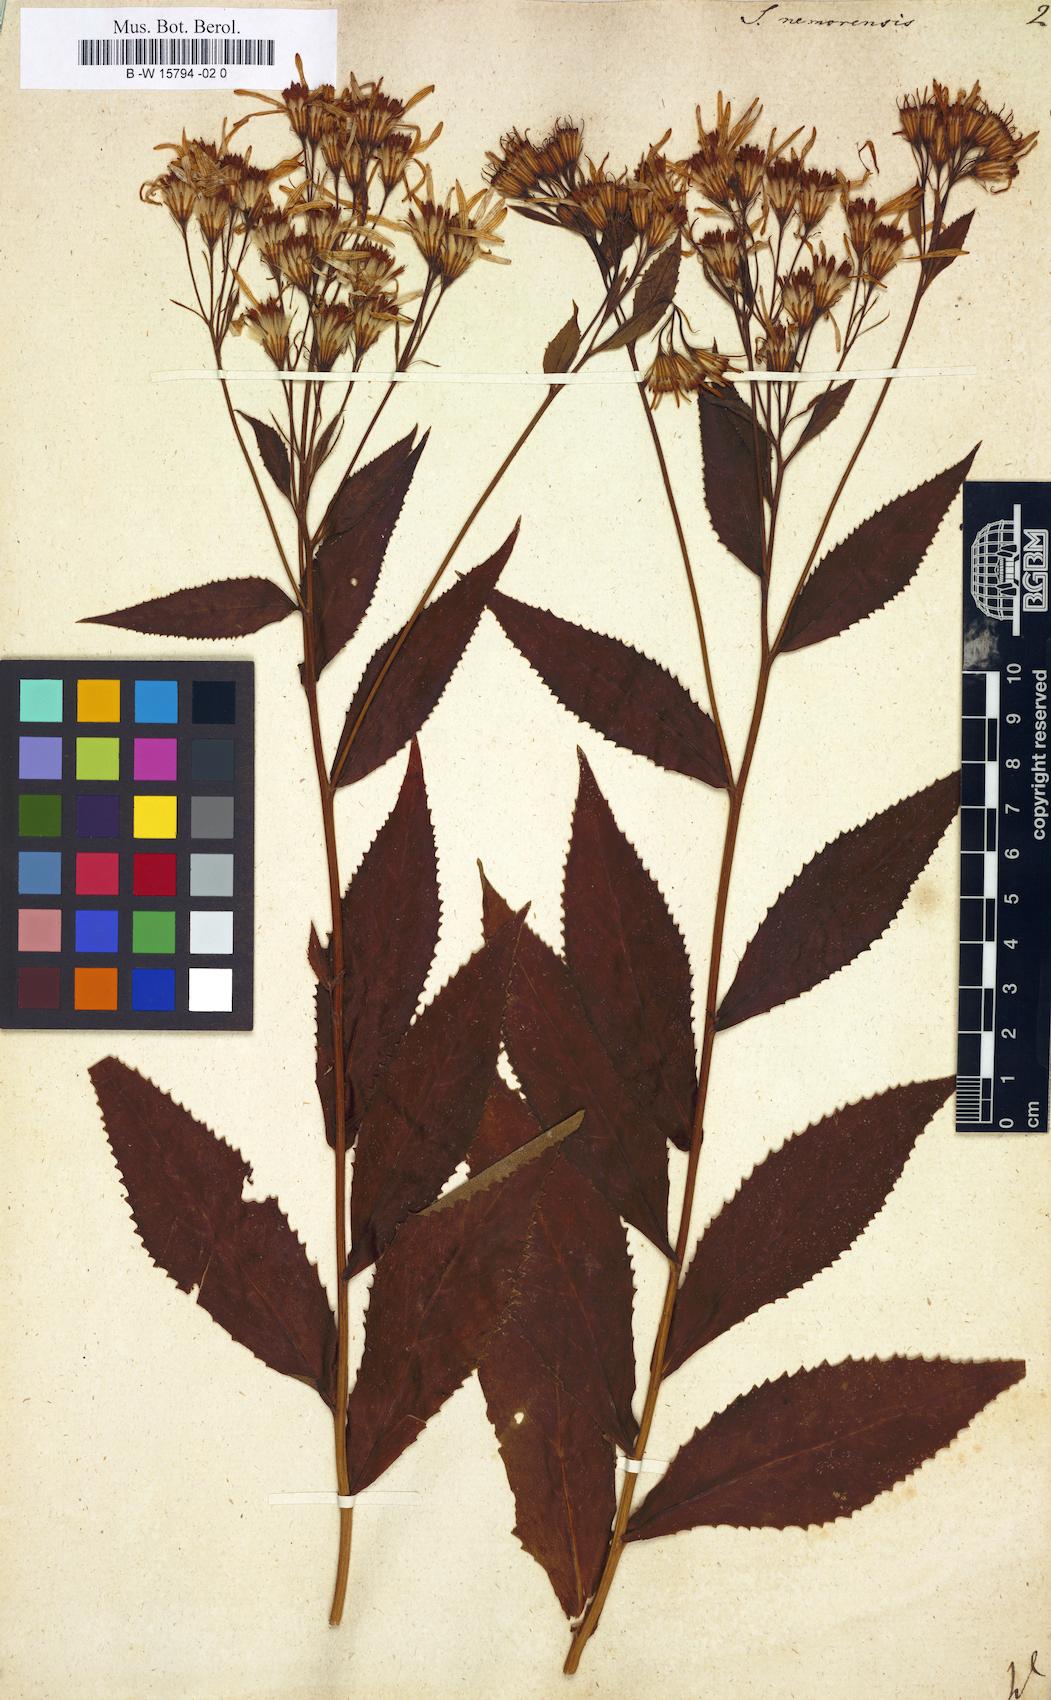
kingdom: Plantae
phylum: Tracheophyta
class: Magnoliopsida
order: Asterales
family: Asteraceae
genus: Senecio
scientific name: Senecio nemorensis
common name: Alpine ragwort
